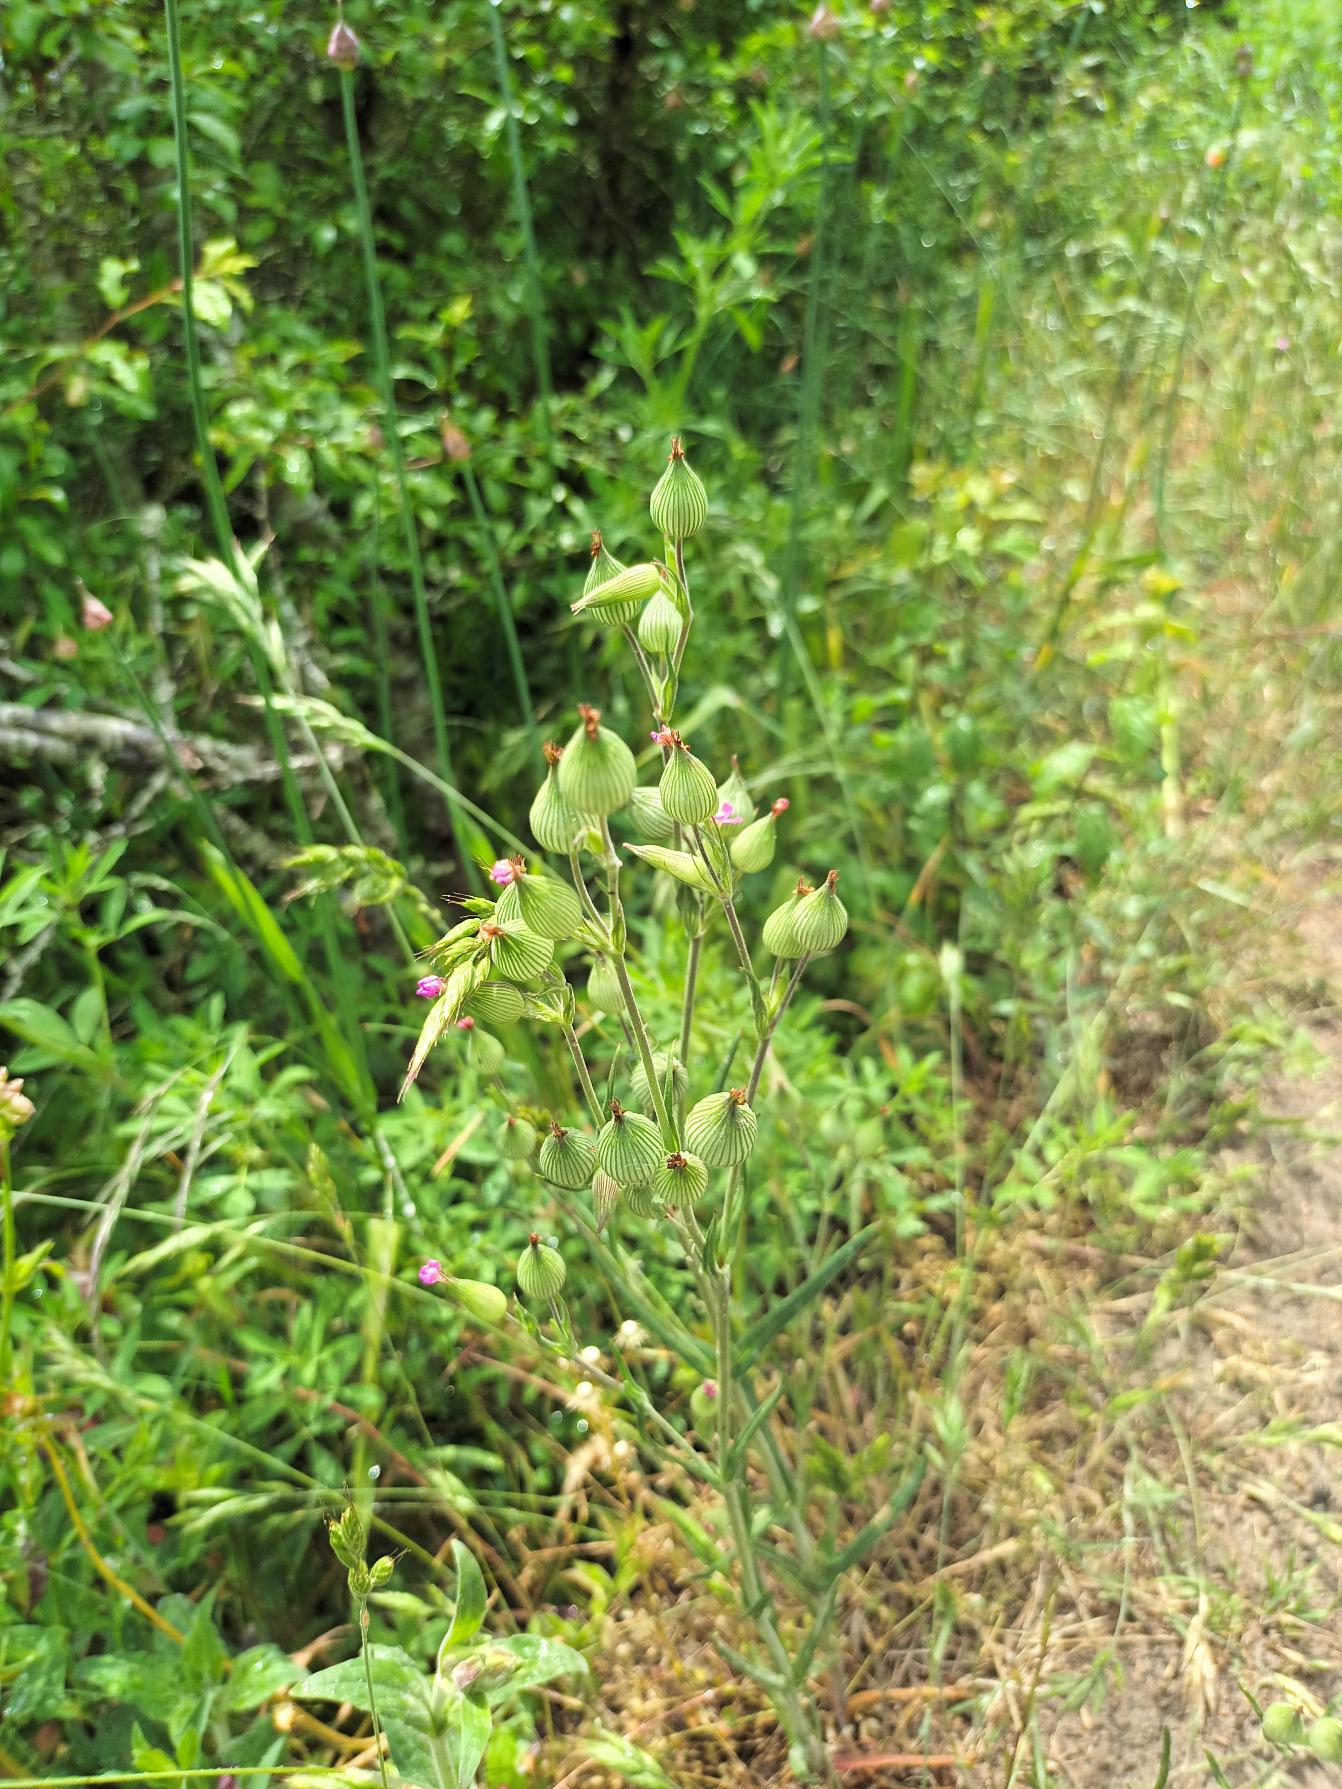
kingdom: Plantae
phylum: Tracheophyta
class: Magnoliopsida
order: Caryophyllales
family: Caryophyllaceae
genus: Silene
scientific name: Silene conica
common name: Kegle-limurt
